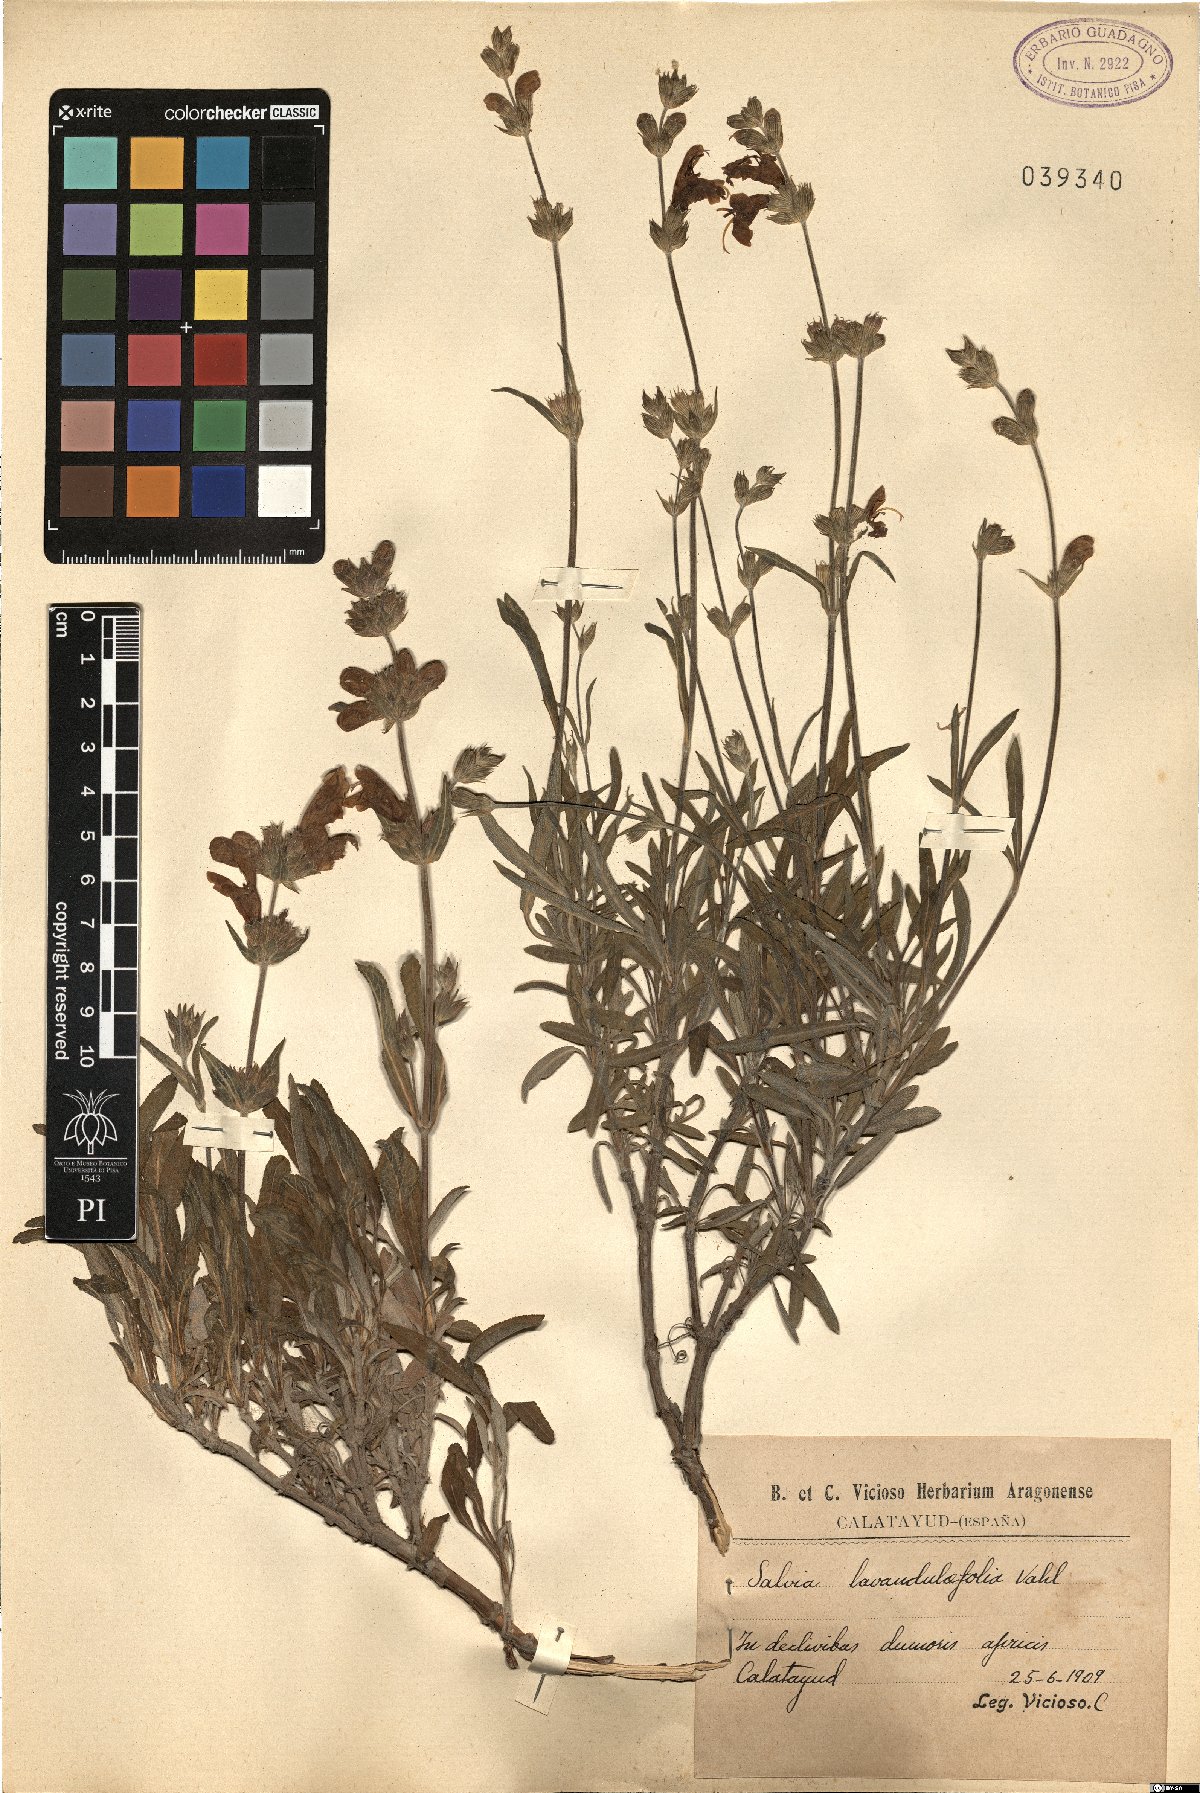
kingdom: Plantae
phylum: Tracheophyta
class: Magnoliopsida
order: Lamiales
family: Lamiaceae
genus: Salvia
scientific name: Salvia officinalis
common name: Sage
